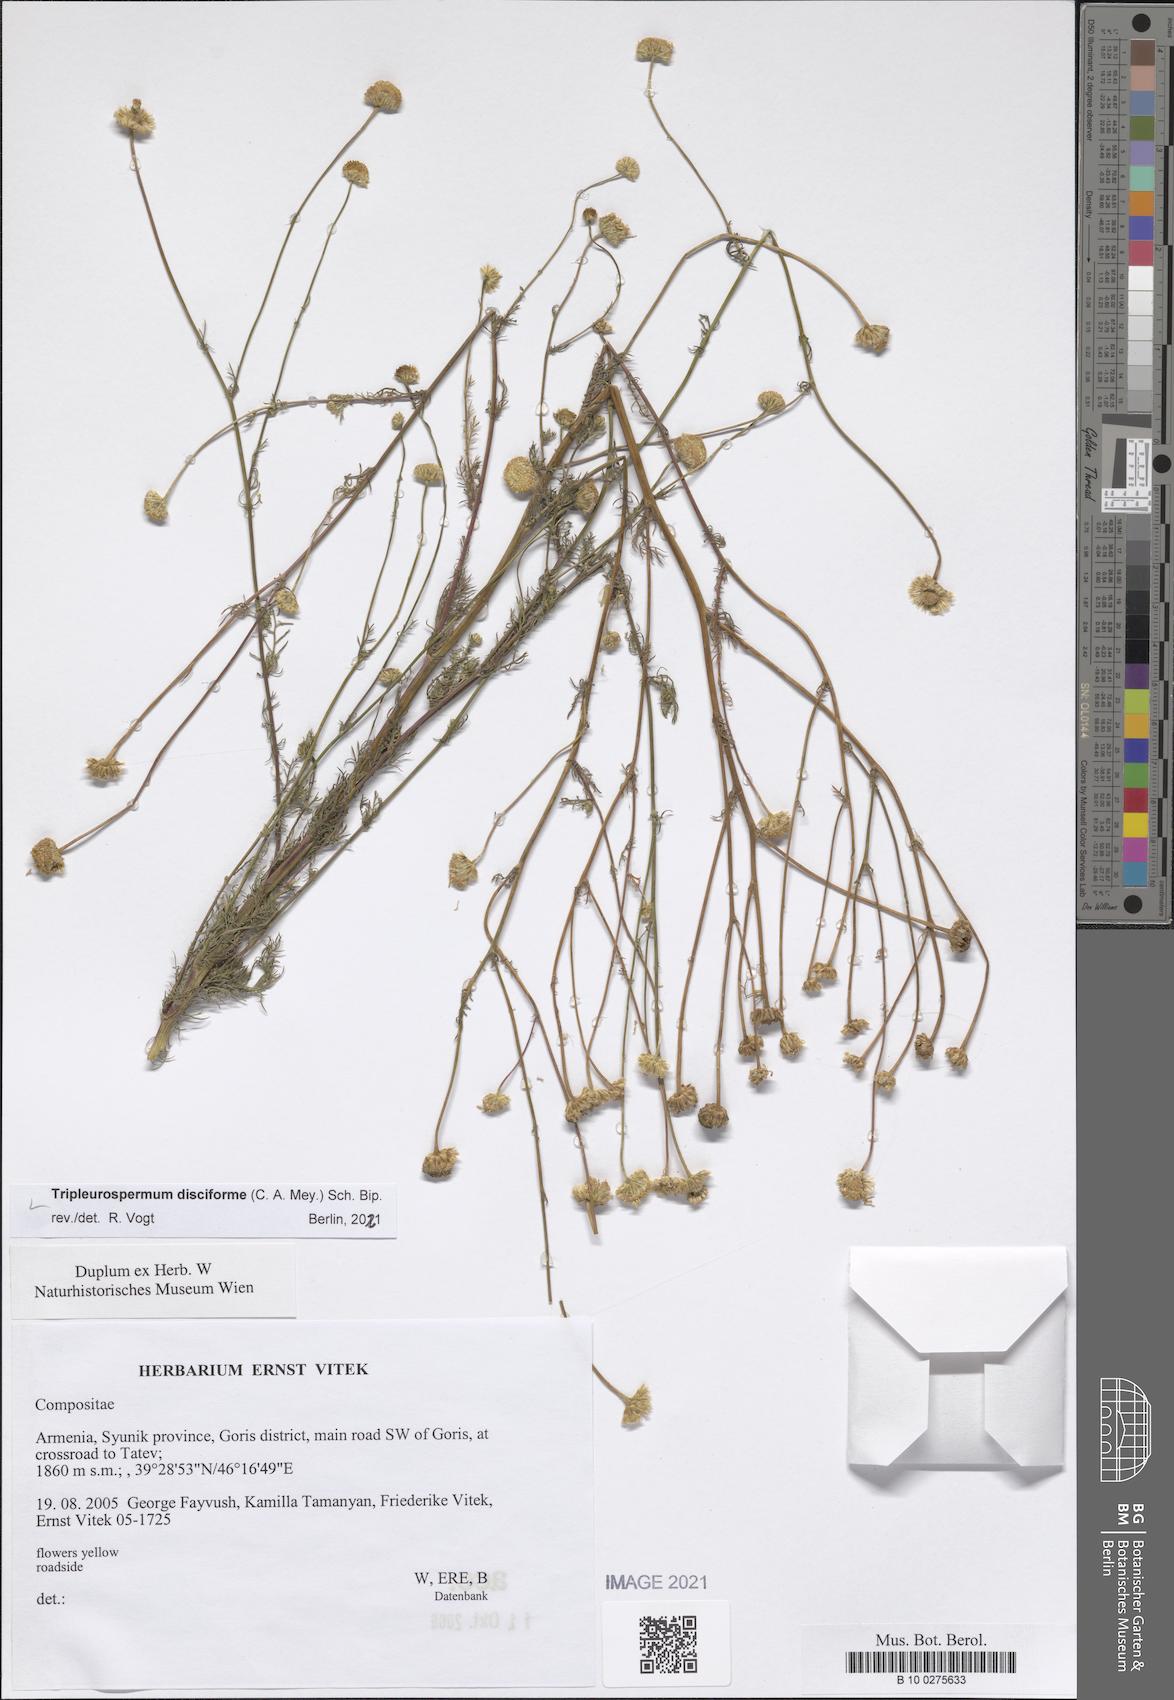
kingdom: Plantae
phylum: Tracheophyta
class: Magnoliopsida
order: Asterales
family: Asteraceae
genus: Tripleurospermum
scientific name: Tripleurospermum disciforme
